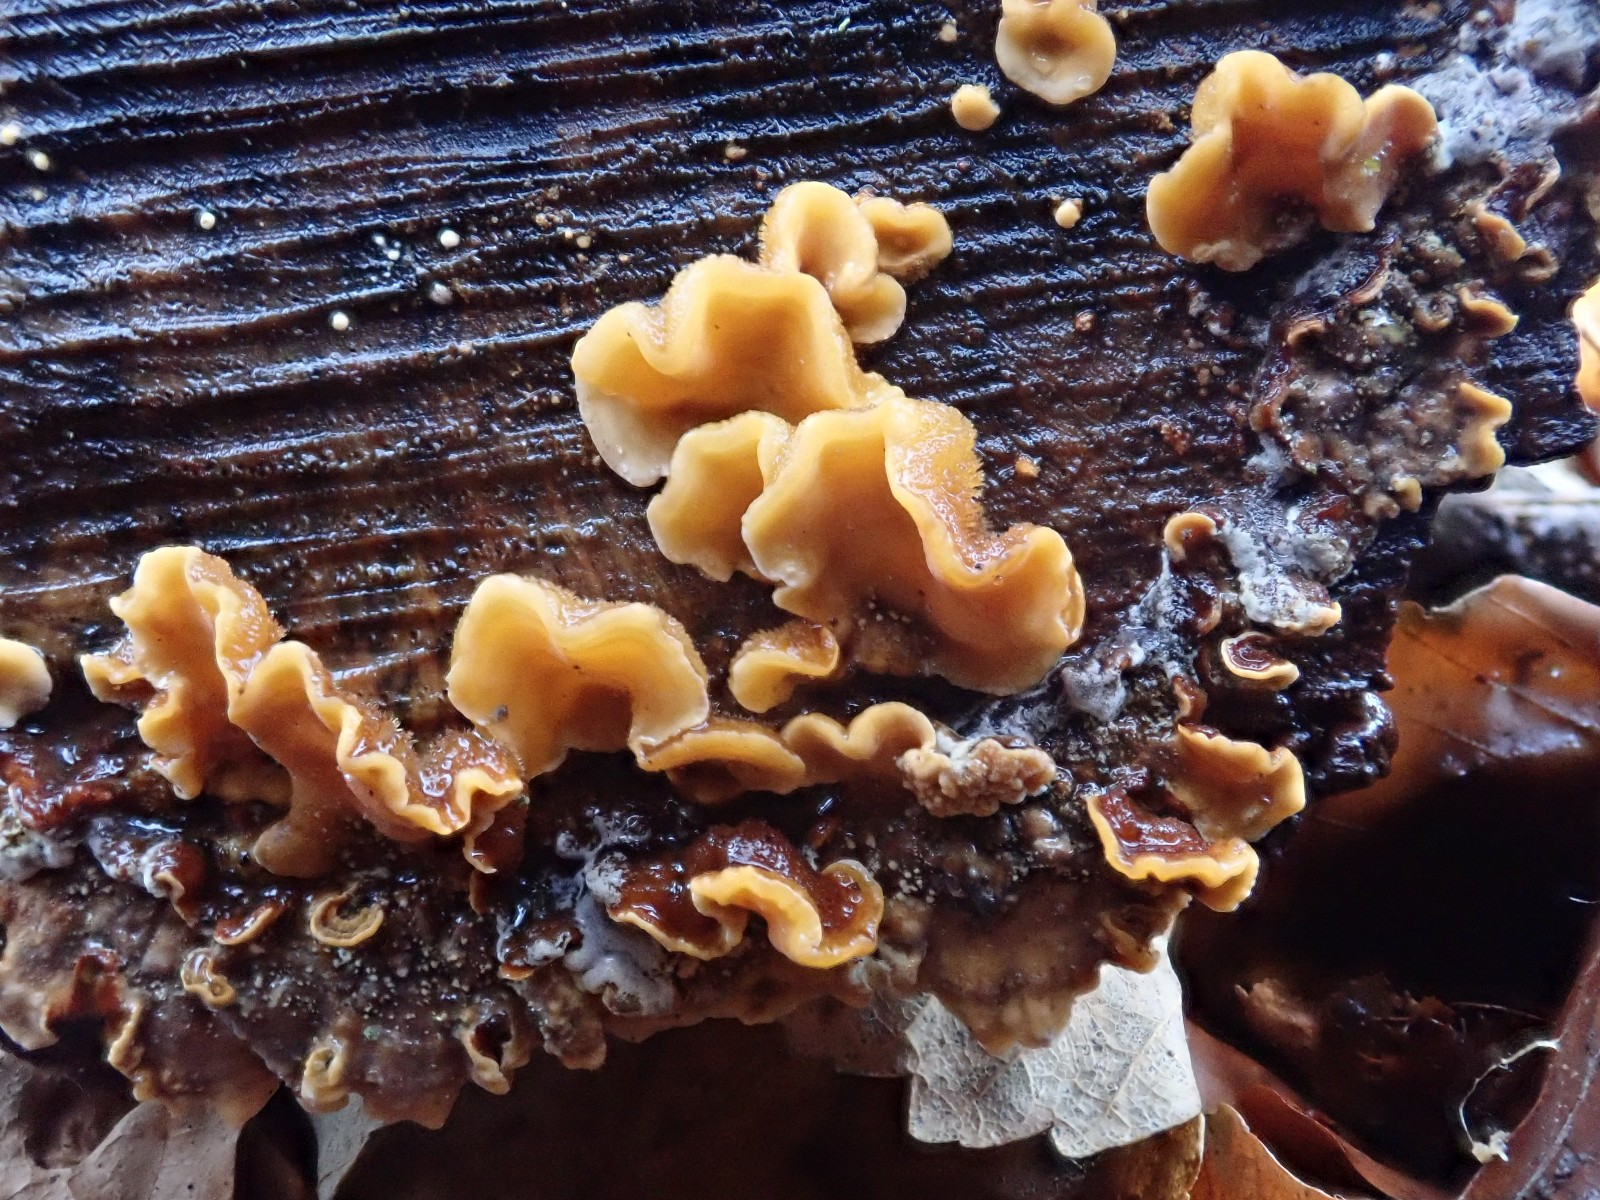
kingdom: Fungi
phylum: Basidiomycota
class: Agaricomycetes
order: Russulales
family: Stereaceae
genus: Stereum
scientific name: Stereum hirsutum
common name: håret lædersvamp
